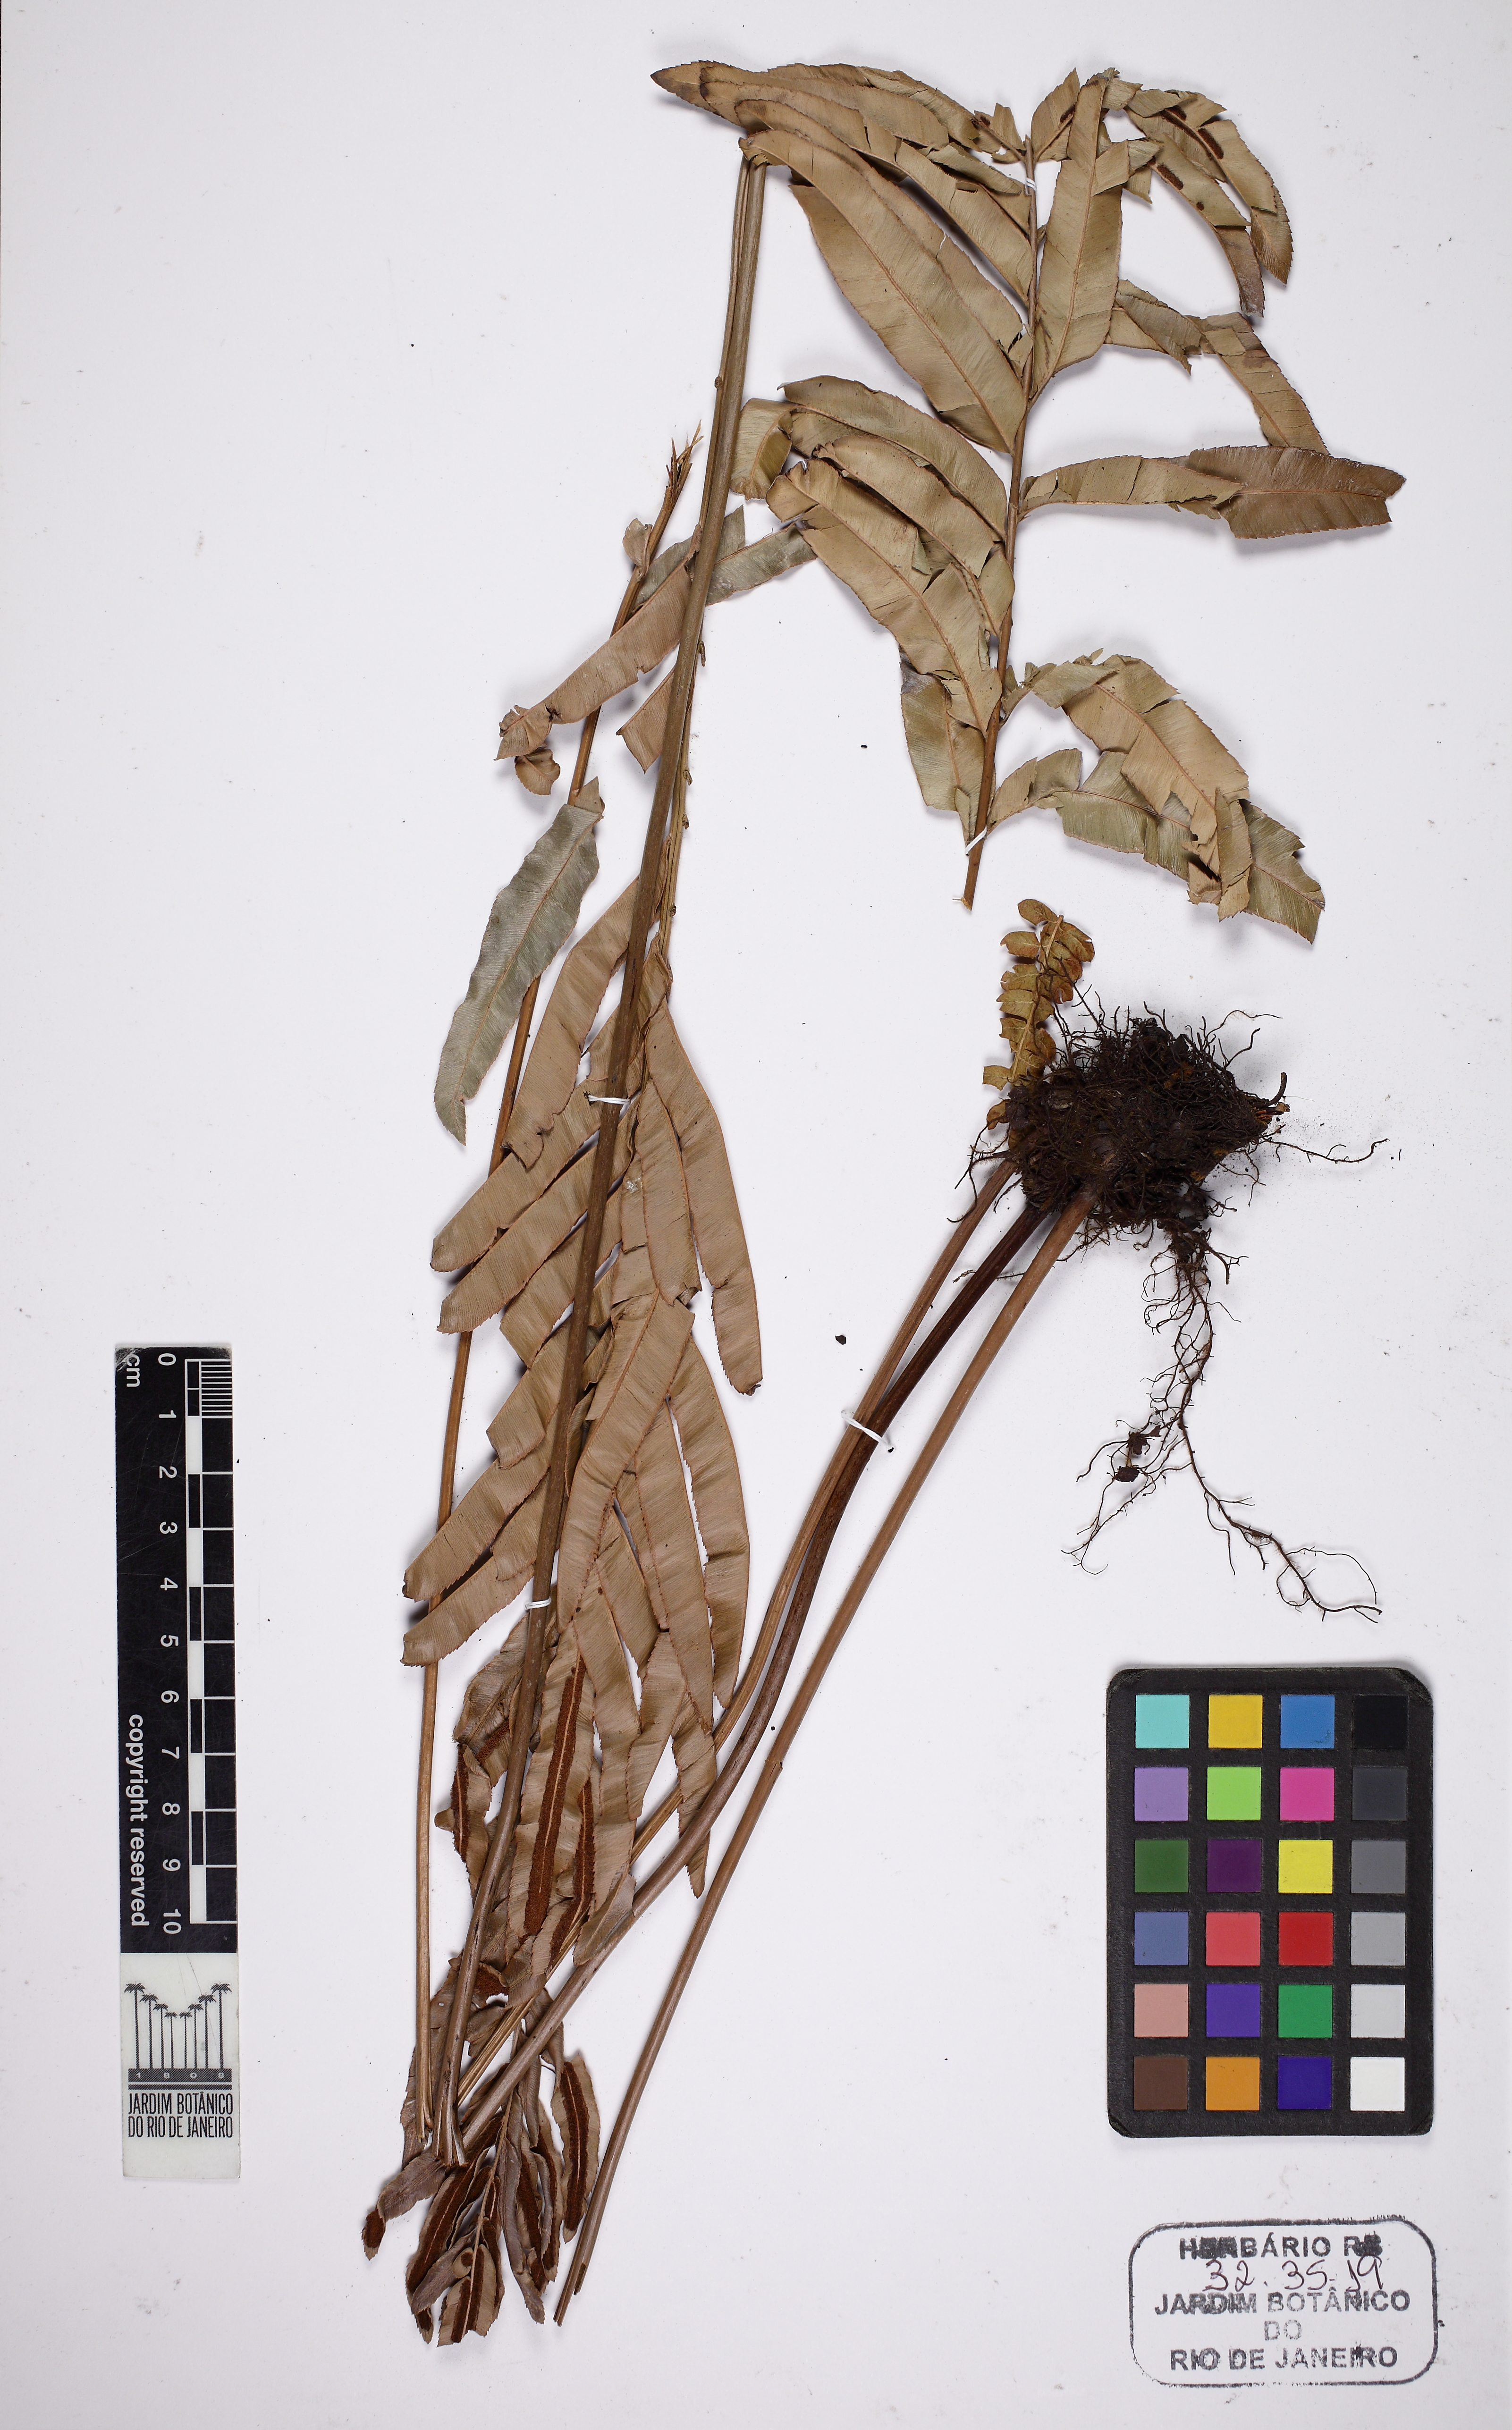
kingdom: Plantae
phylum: Tracheophyta
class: Polypodiopsida
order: Polypodiales
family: Blechnaceae
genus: Telmatoblechnum
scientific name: Telmatoblechnum serrulatum
